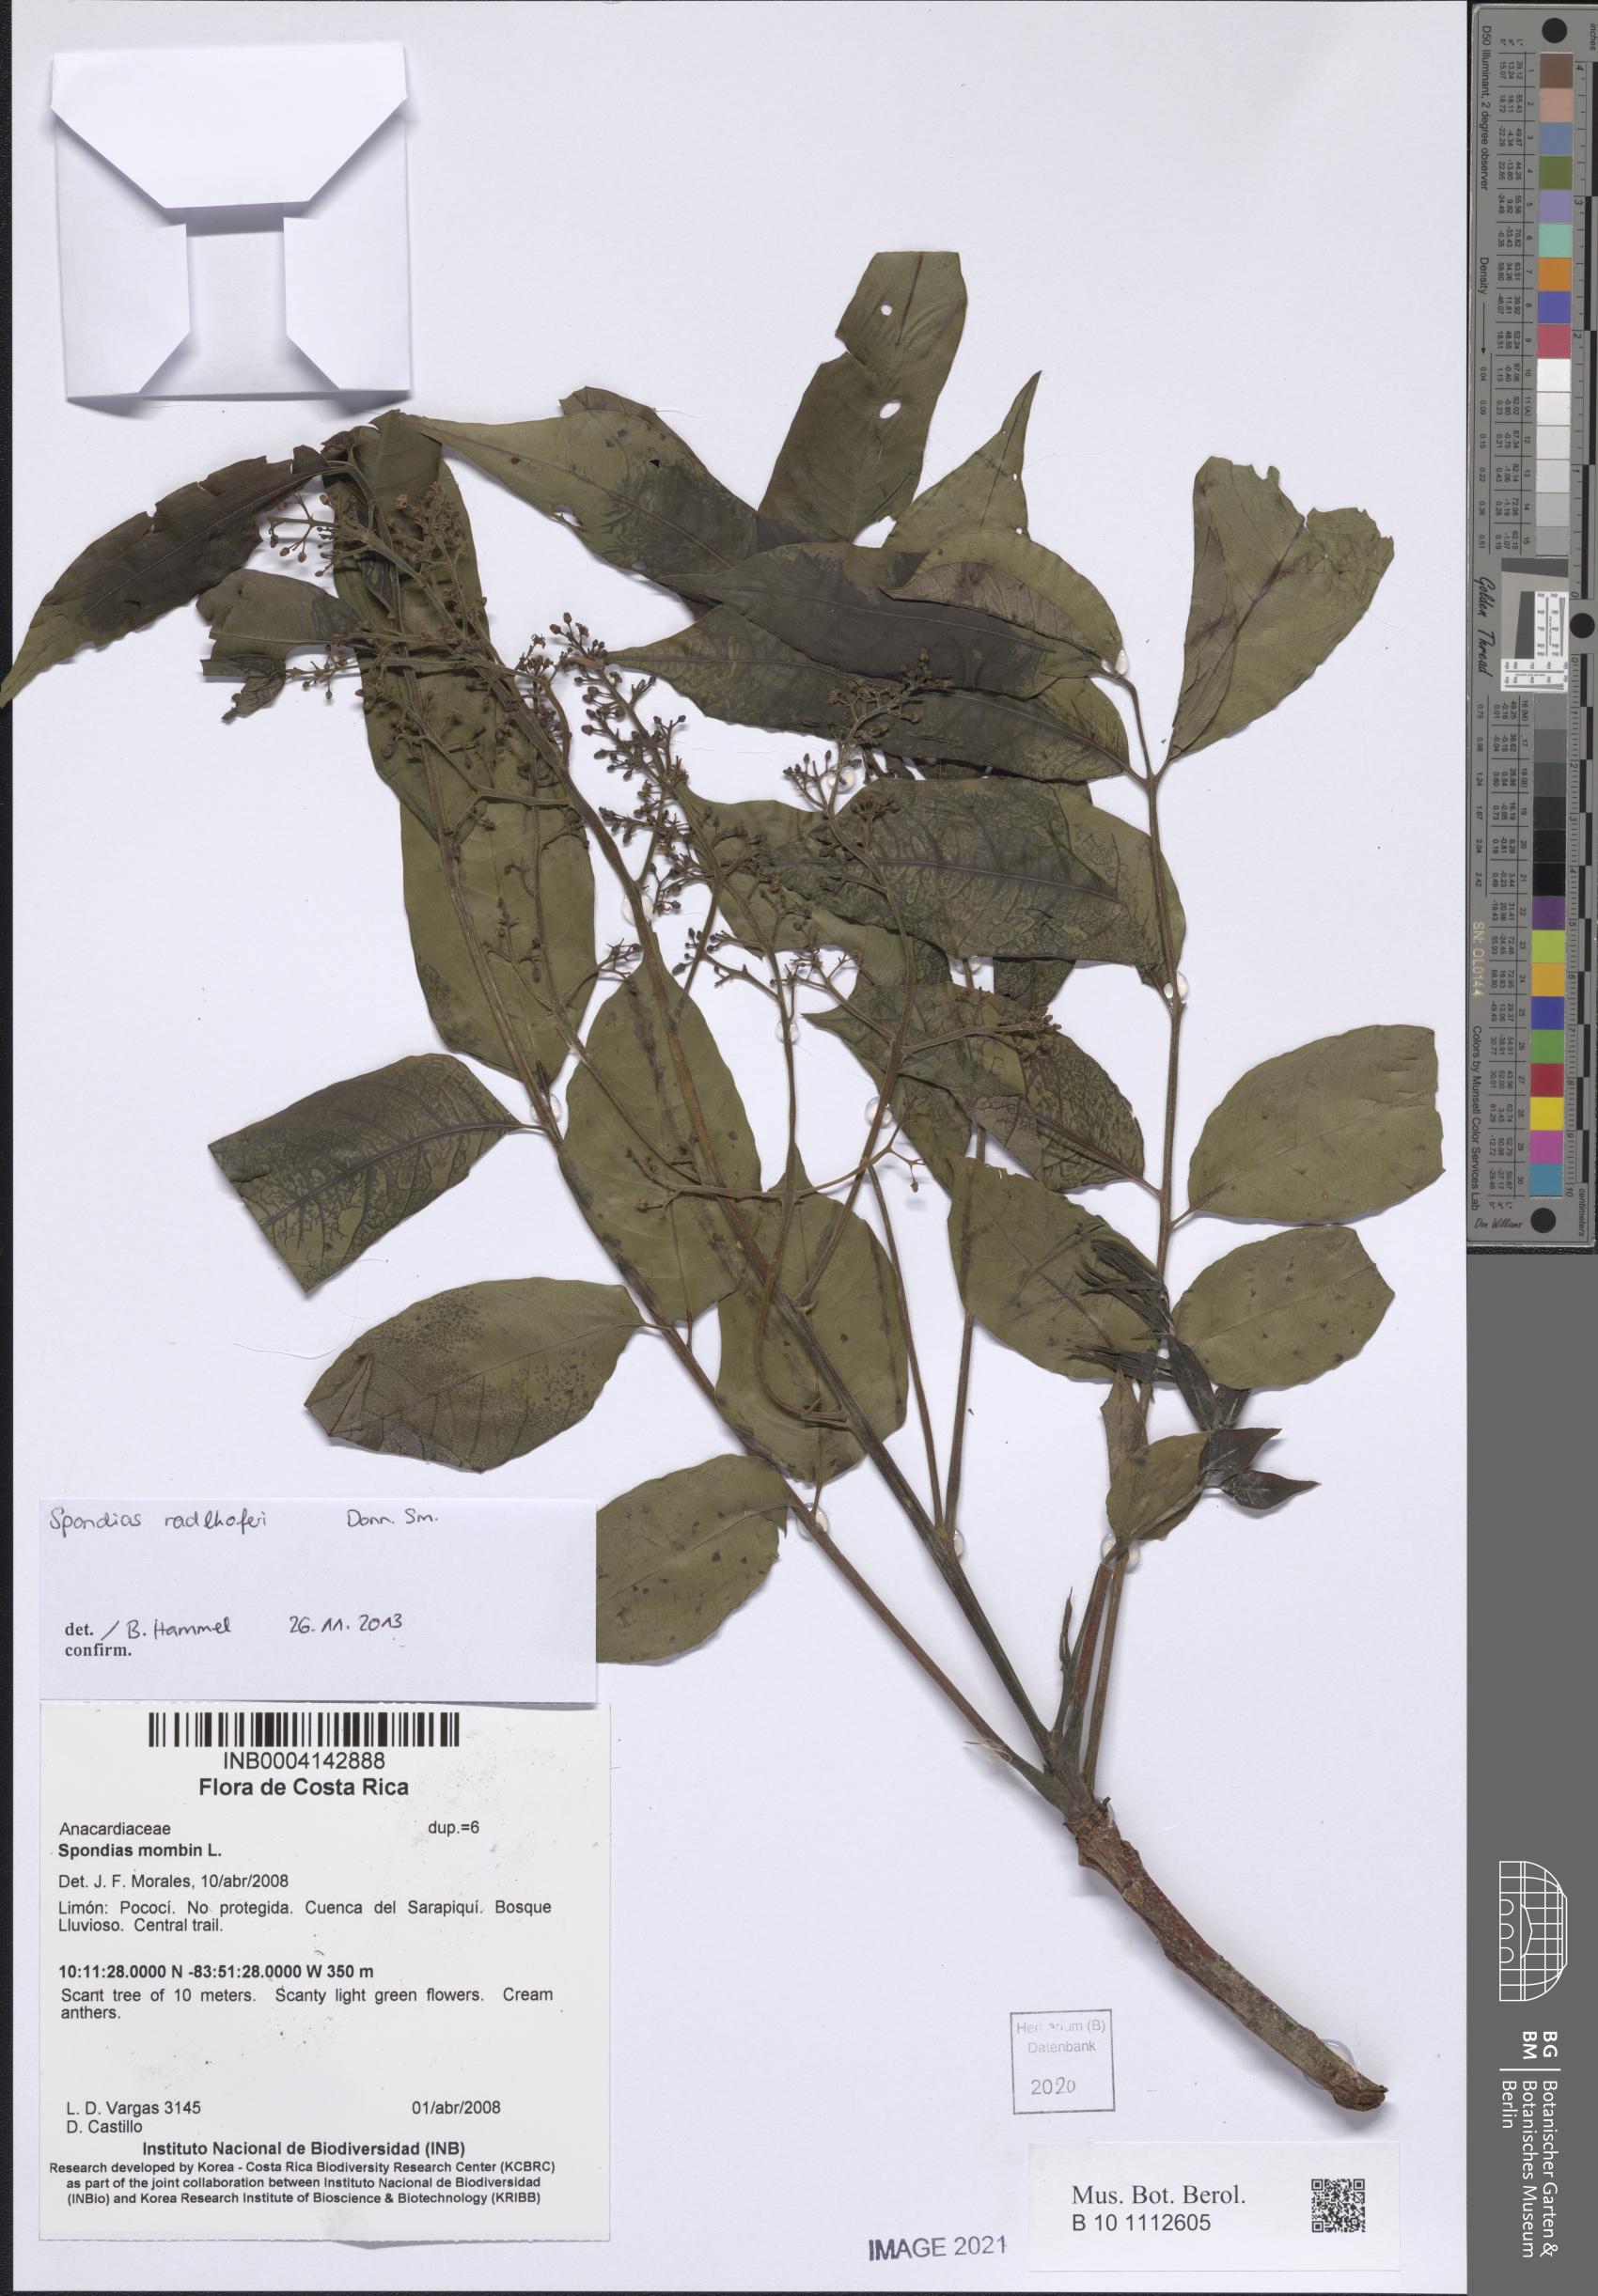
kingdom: Plantae
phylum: Tracheophyta
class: Magnoliopsida
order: Sapindales
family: Anacardiaceae
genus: Spondias
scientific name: Spondias radlkoferi
